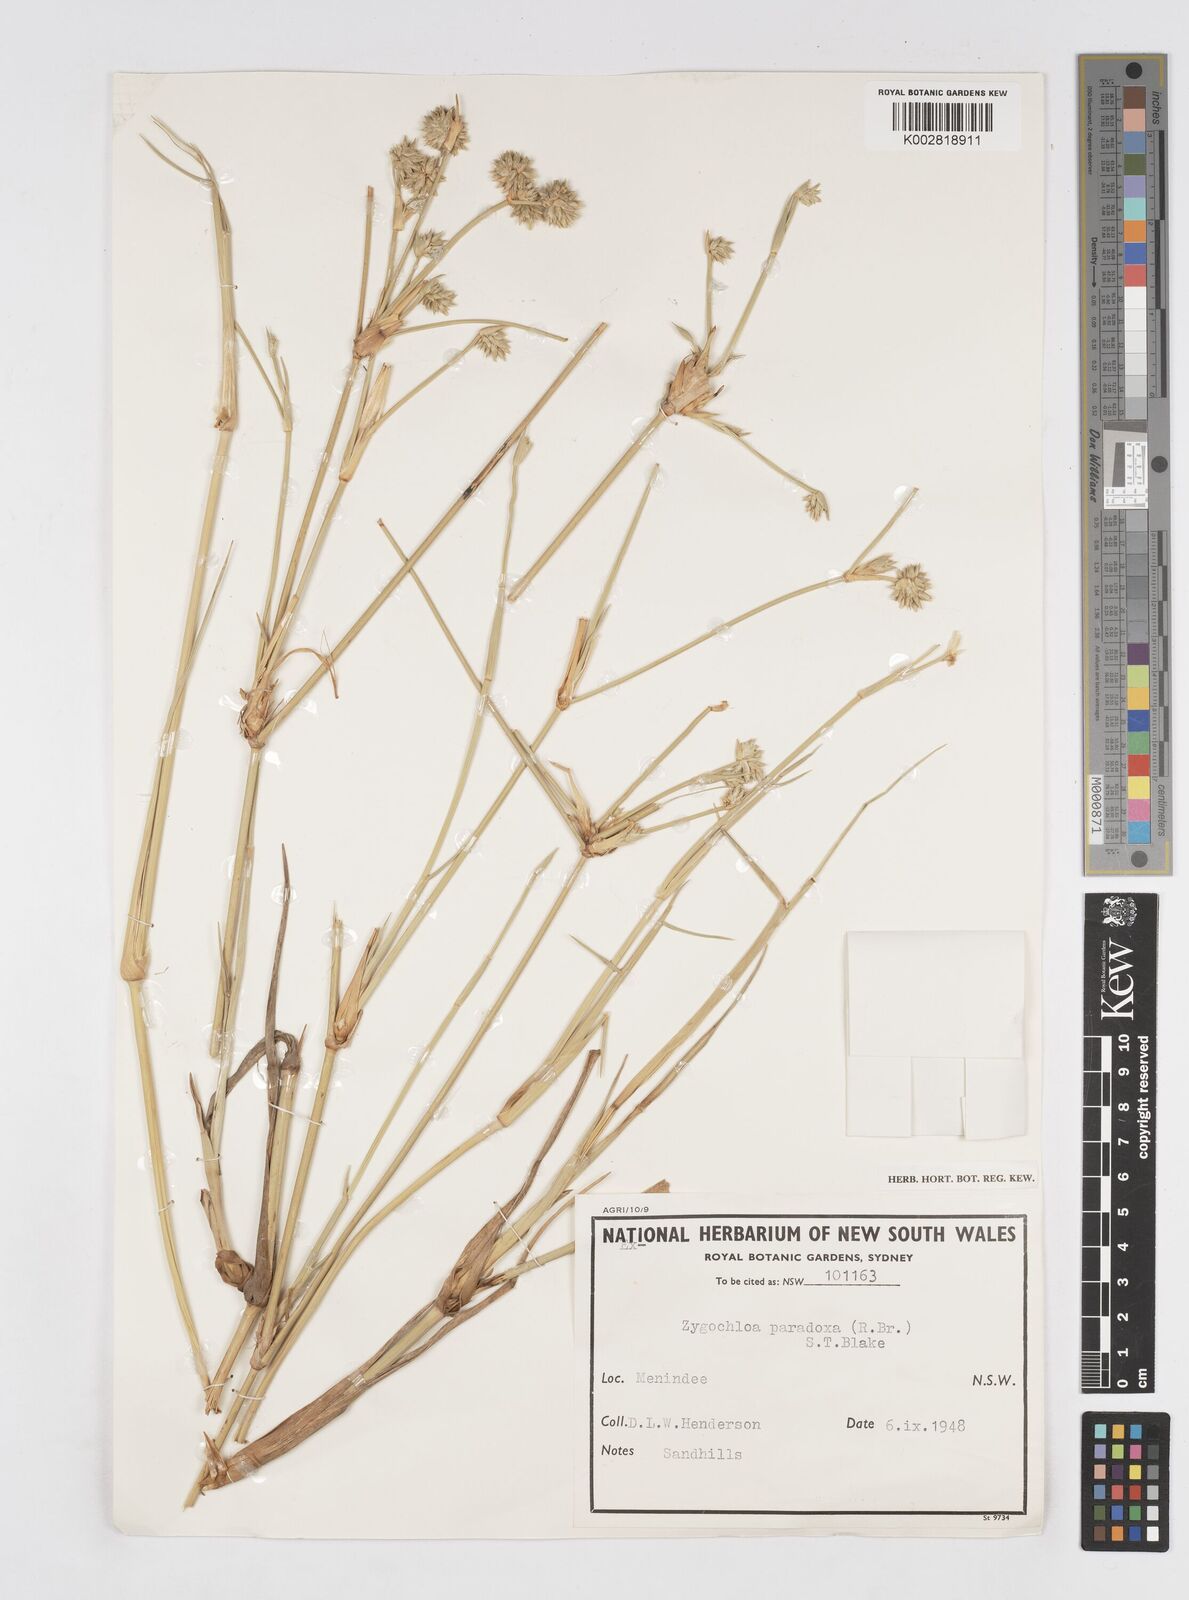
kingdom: Plantae
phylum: Tracheophyta
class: Liliopsida
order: Poales
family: Poaceae
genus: Zygochloa
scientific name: Zygochloa paradoxa
